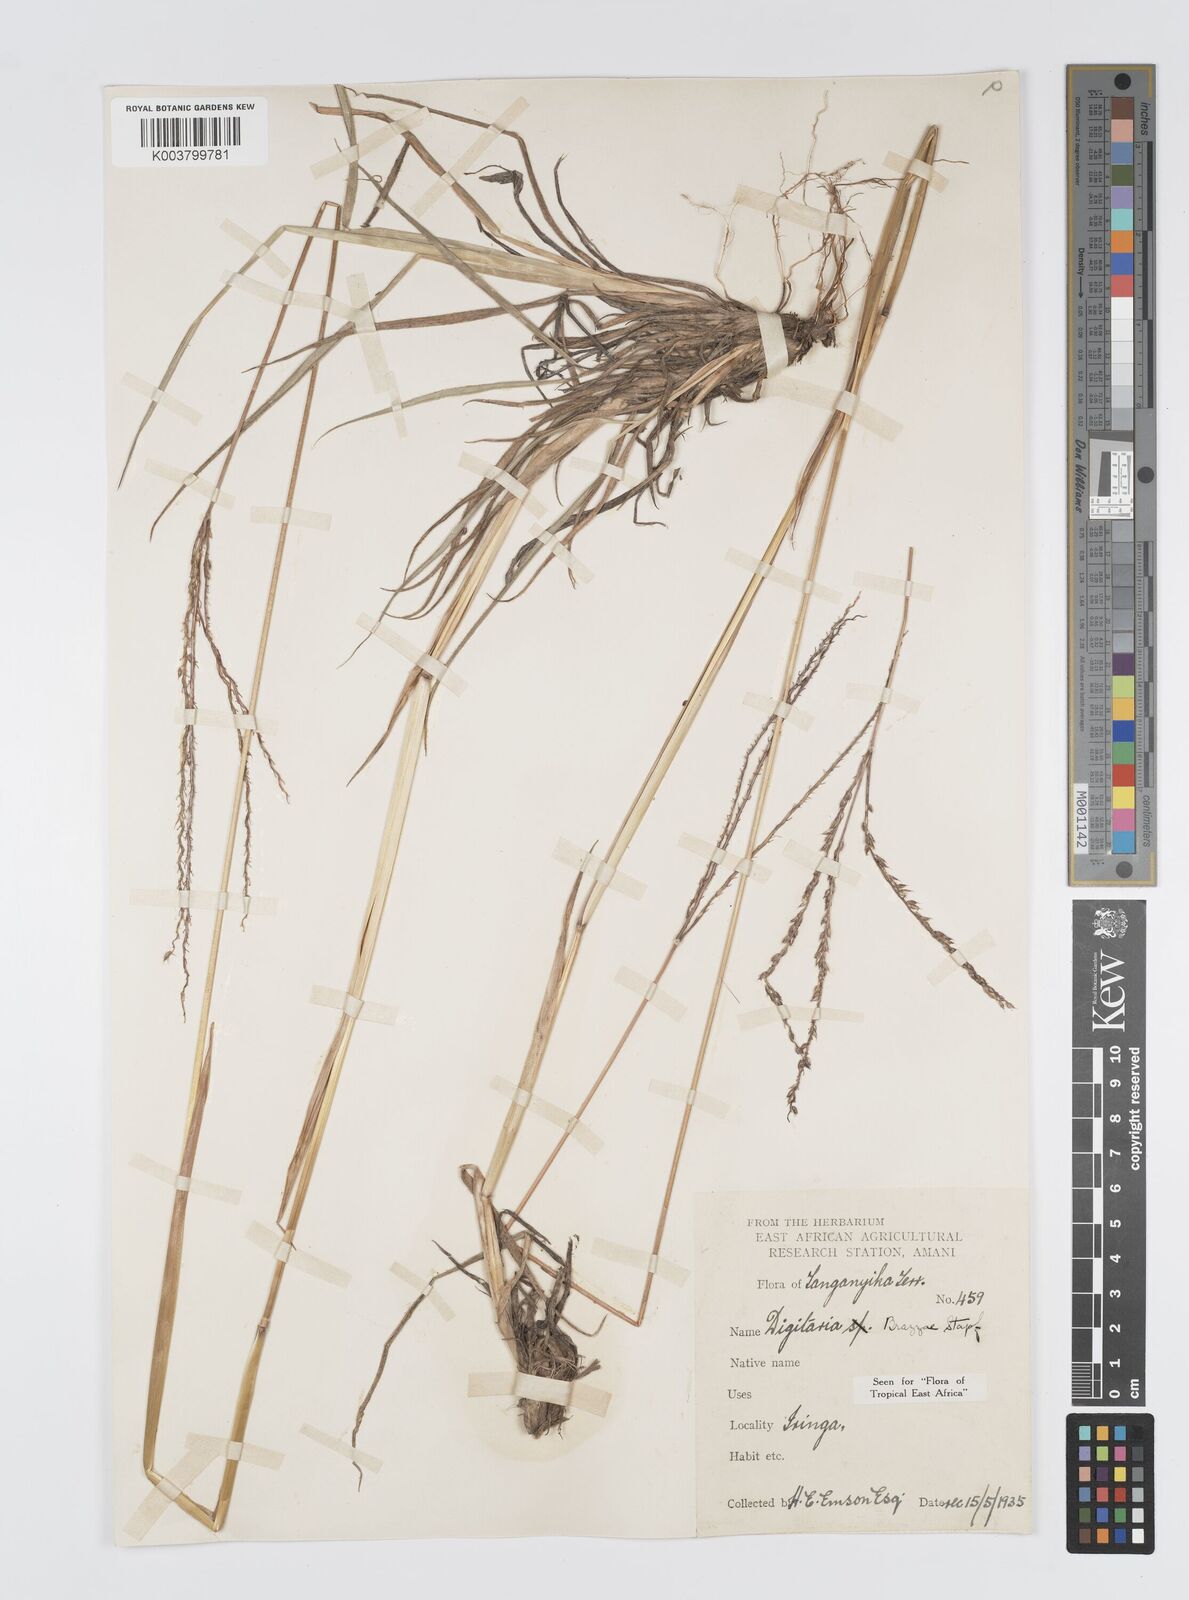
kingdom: Plantae
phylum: Tracheophyta
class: Liliopsida
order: Poales
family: Poaceae
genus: Digitaria
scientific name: Digitaria brazzae
